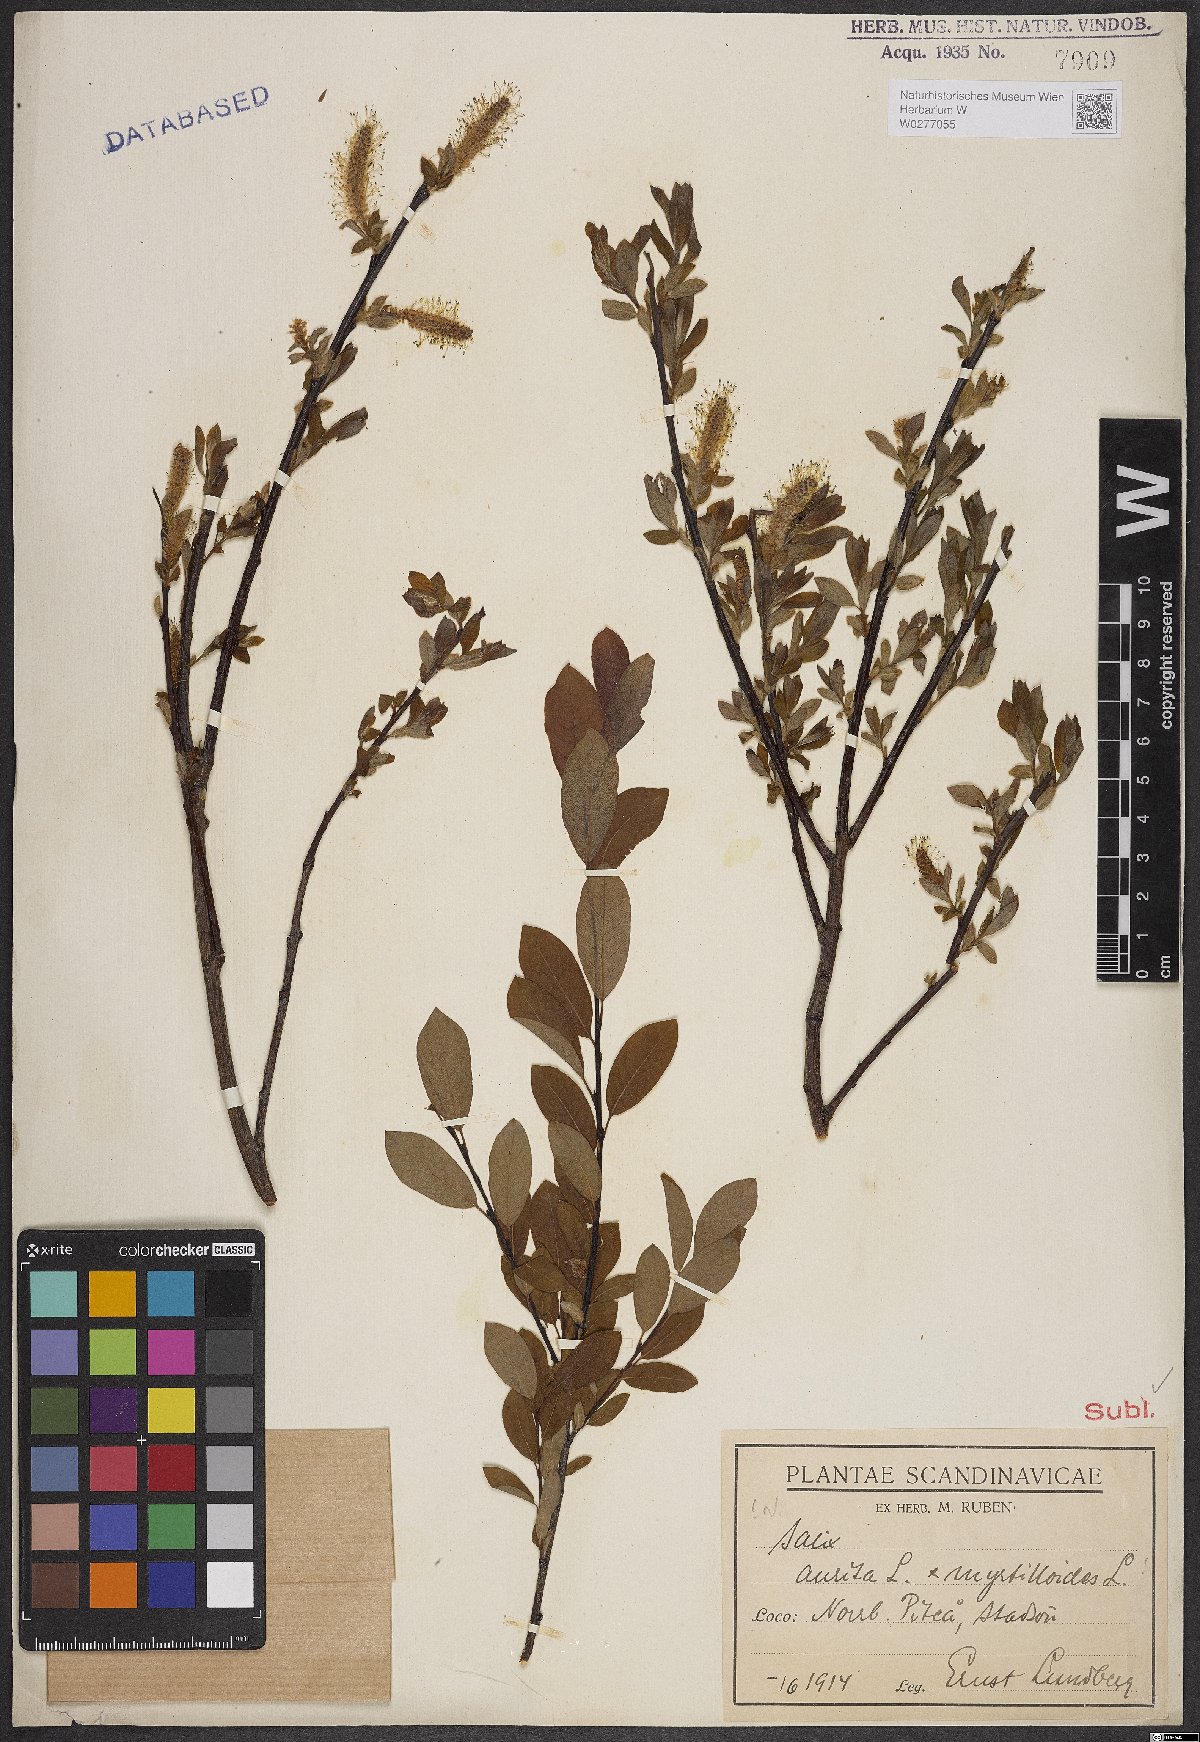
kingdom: Plantae
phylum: Tracheophyta
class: Magnoliopsida
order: Malpighiales
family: Salicaceae
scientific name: Salicaceae
